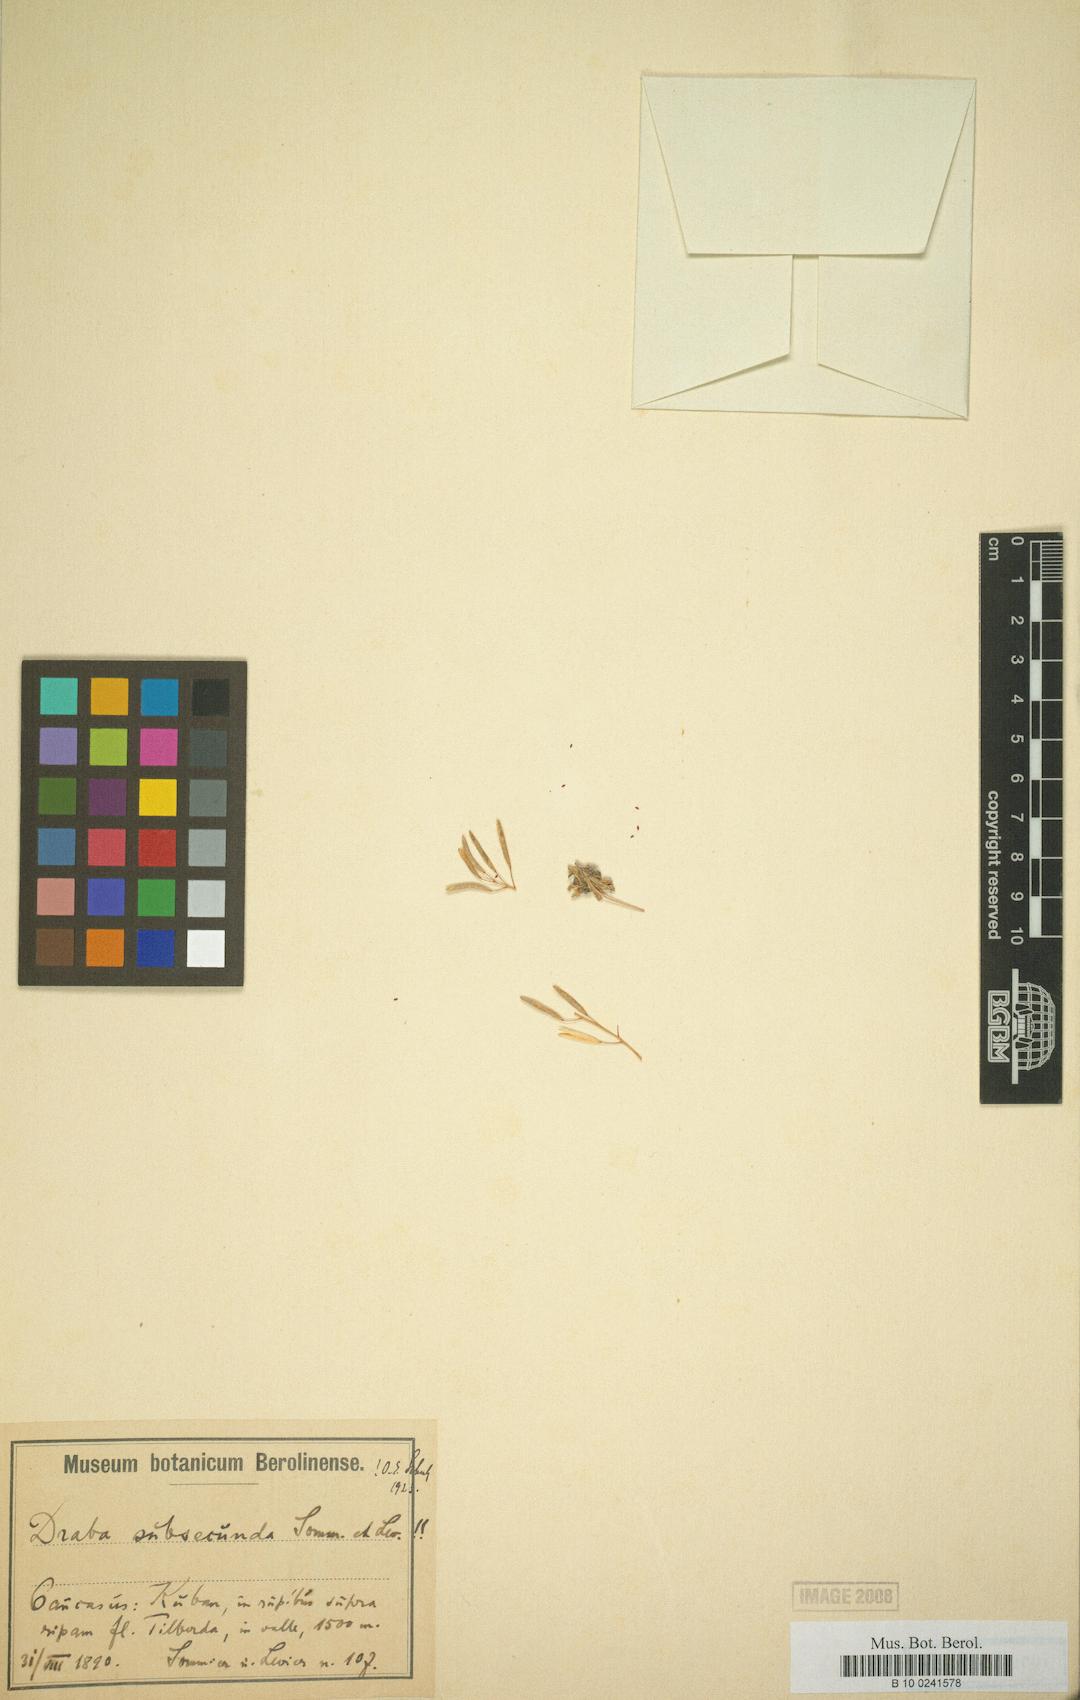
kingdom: Plantae
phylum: Tracheophyta
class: Magnoliopsida
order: Brassicales
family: Brassicaceae
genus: Draba
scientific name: Draba subsecunda
